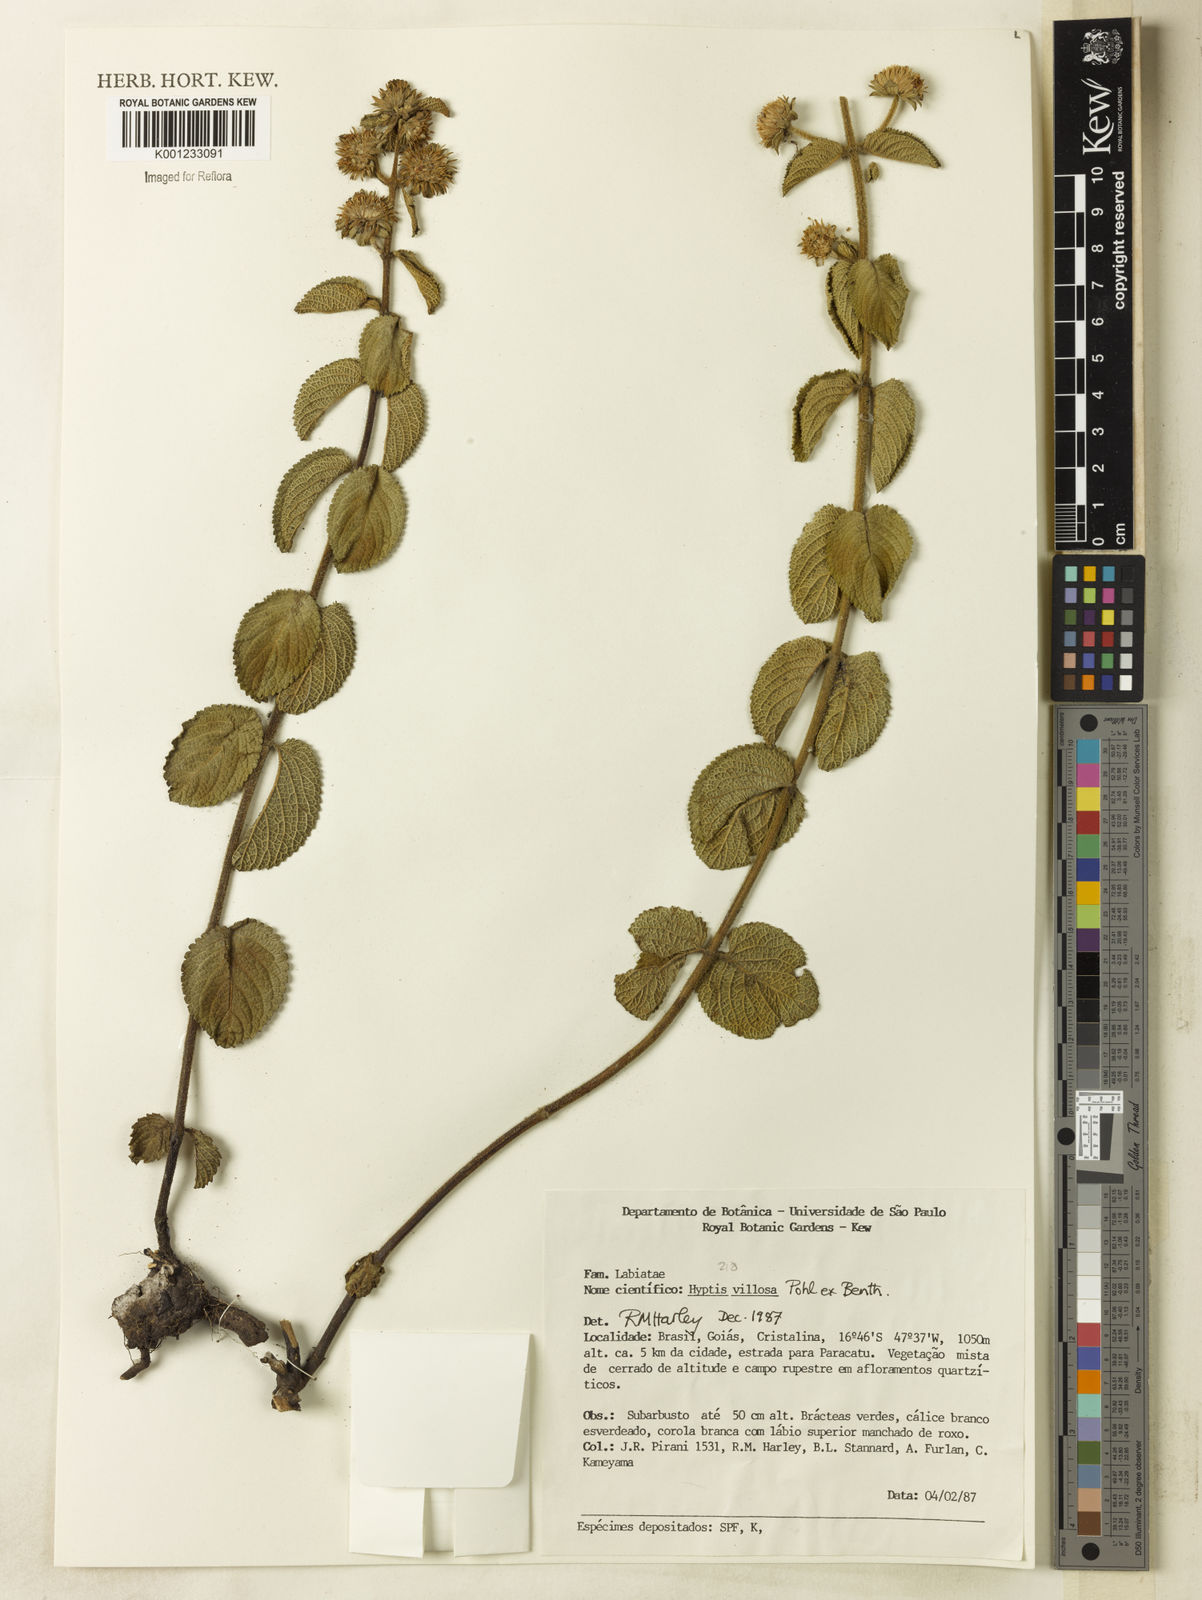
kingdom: Plantae
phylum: Tracheophyta
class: Magnoliopsida
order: Lamiales
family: Lamiaceae
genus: Hyptis
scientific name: Hyptis villosa
